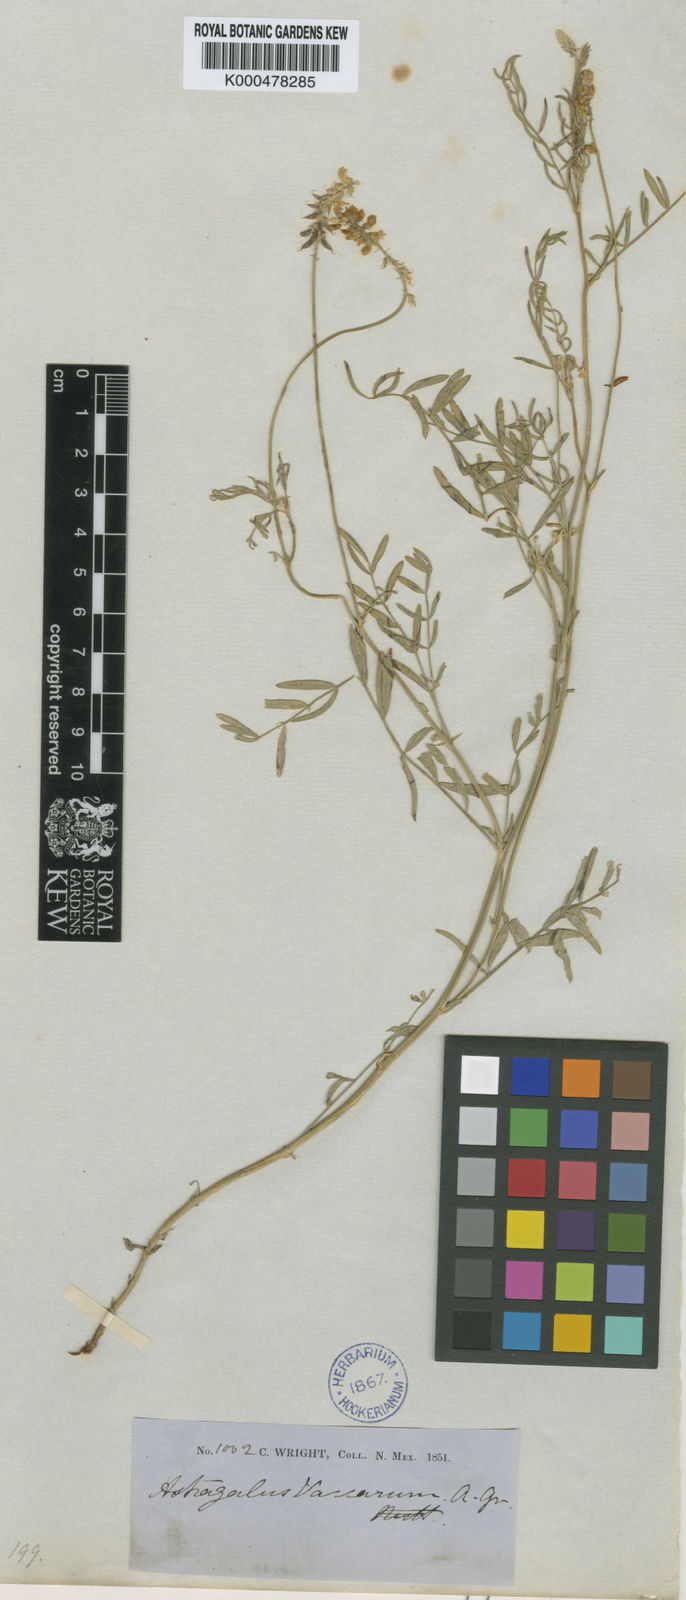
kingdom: Plantae
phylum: Tracheophyta
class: Magnoliopsida
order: Fabales
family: Fabaceae
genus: Astragalus
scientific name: Astragalus hartwegii
